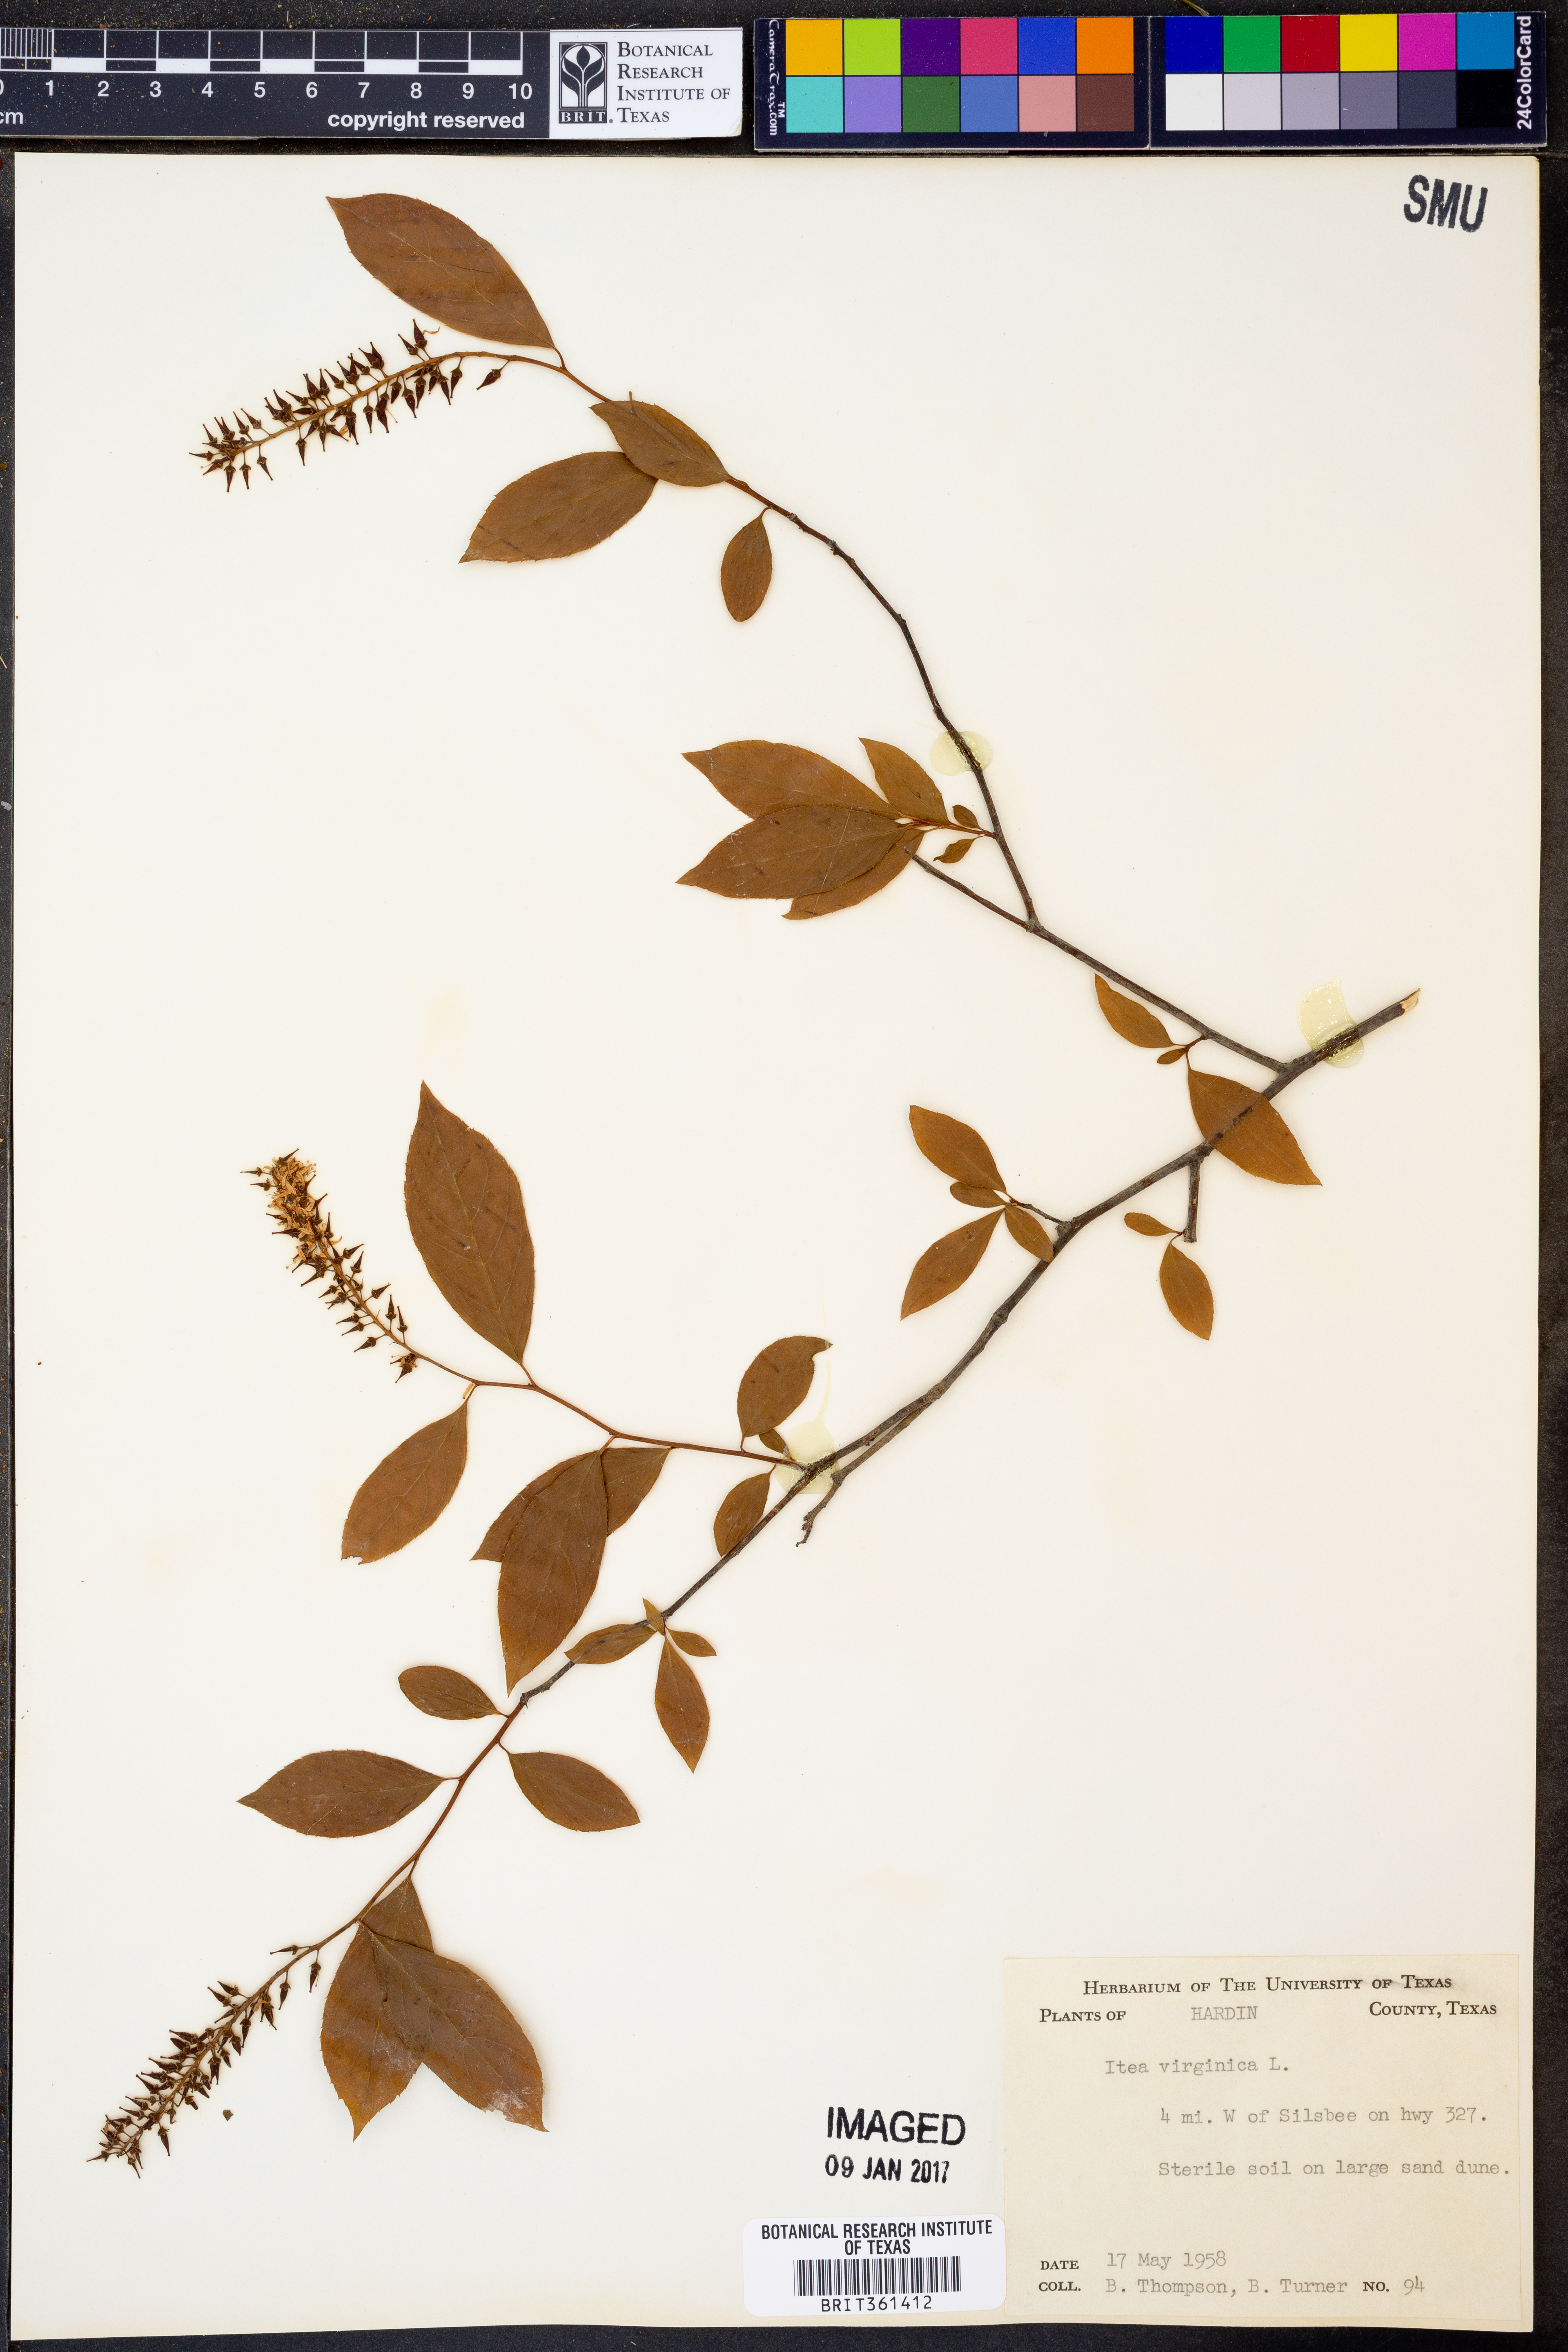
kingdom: Plantae
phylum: Tracheophyta
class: Magnoliopsida
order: Saxifragales
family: Iteaceae
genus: Itea
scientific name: Itea virginica
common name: Sweetspire
